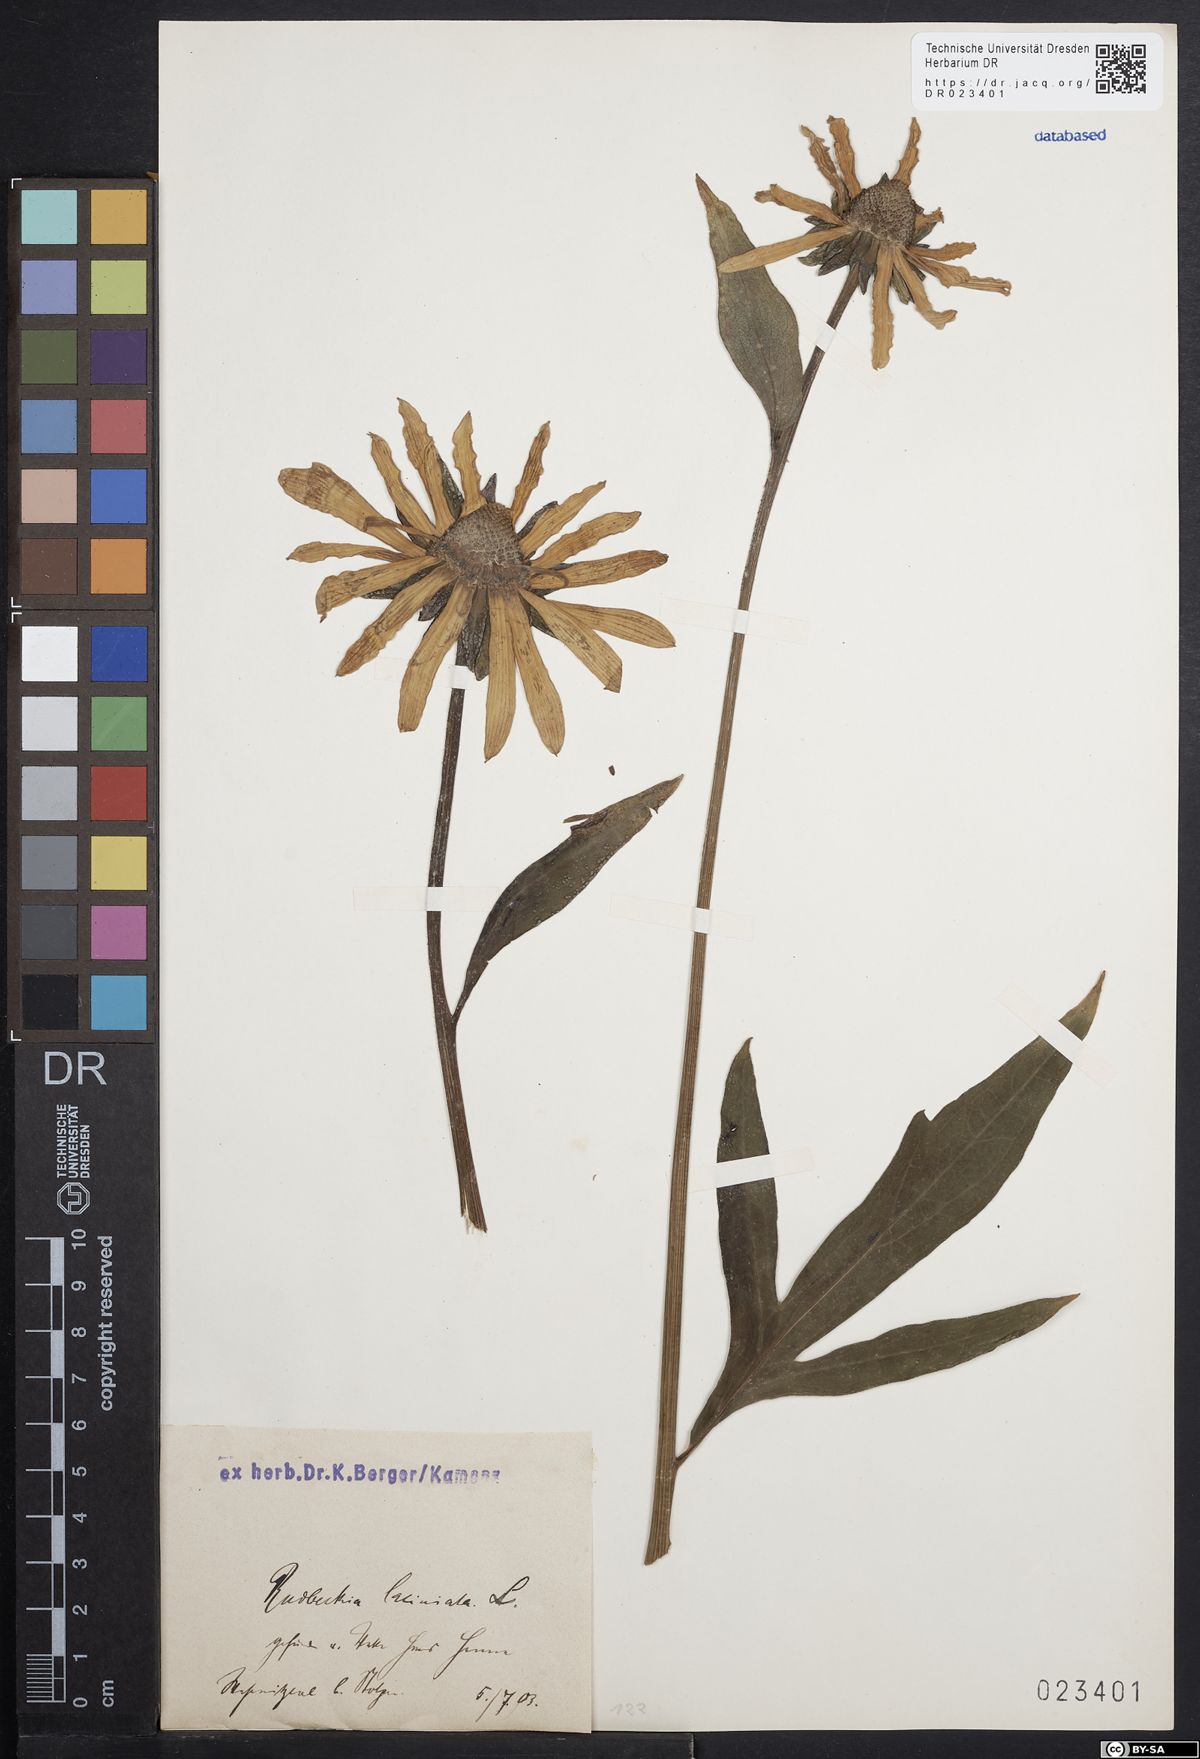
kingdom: Plantae
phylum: Tracheophyta
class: Magnoliopsida
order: Asterales
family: Asteraceae
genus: Rudbeckia
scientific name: Rudbeckia laciniata
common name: Coneflower
